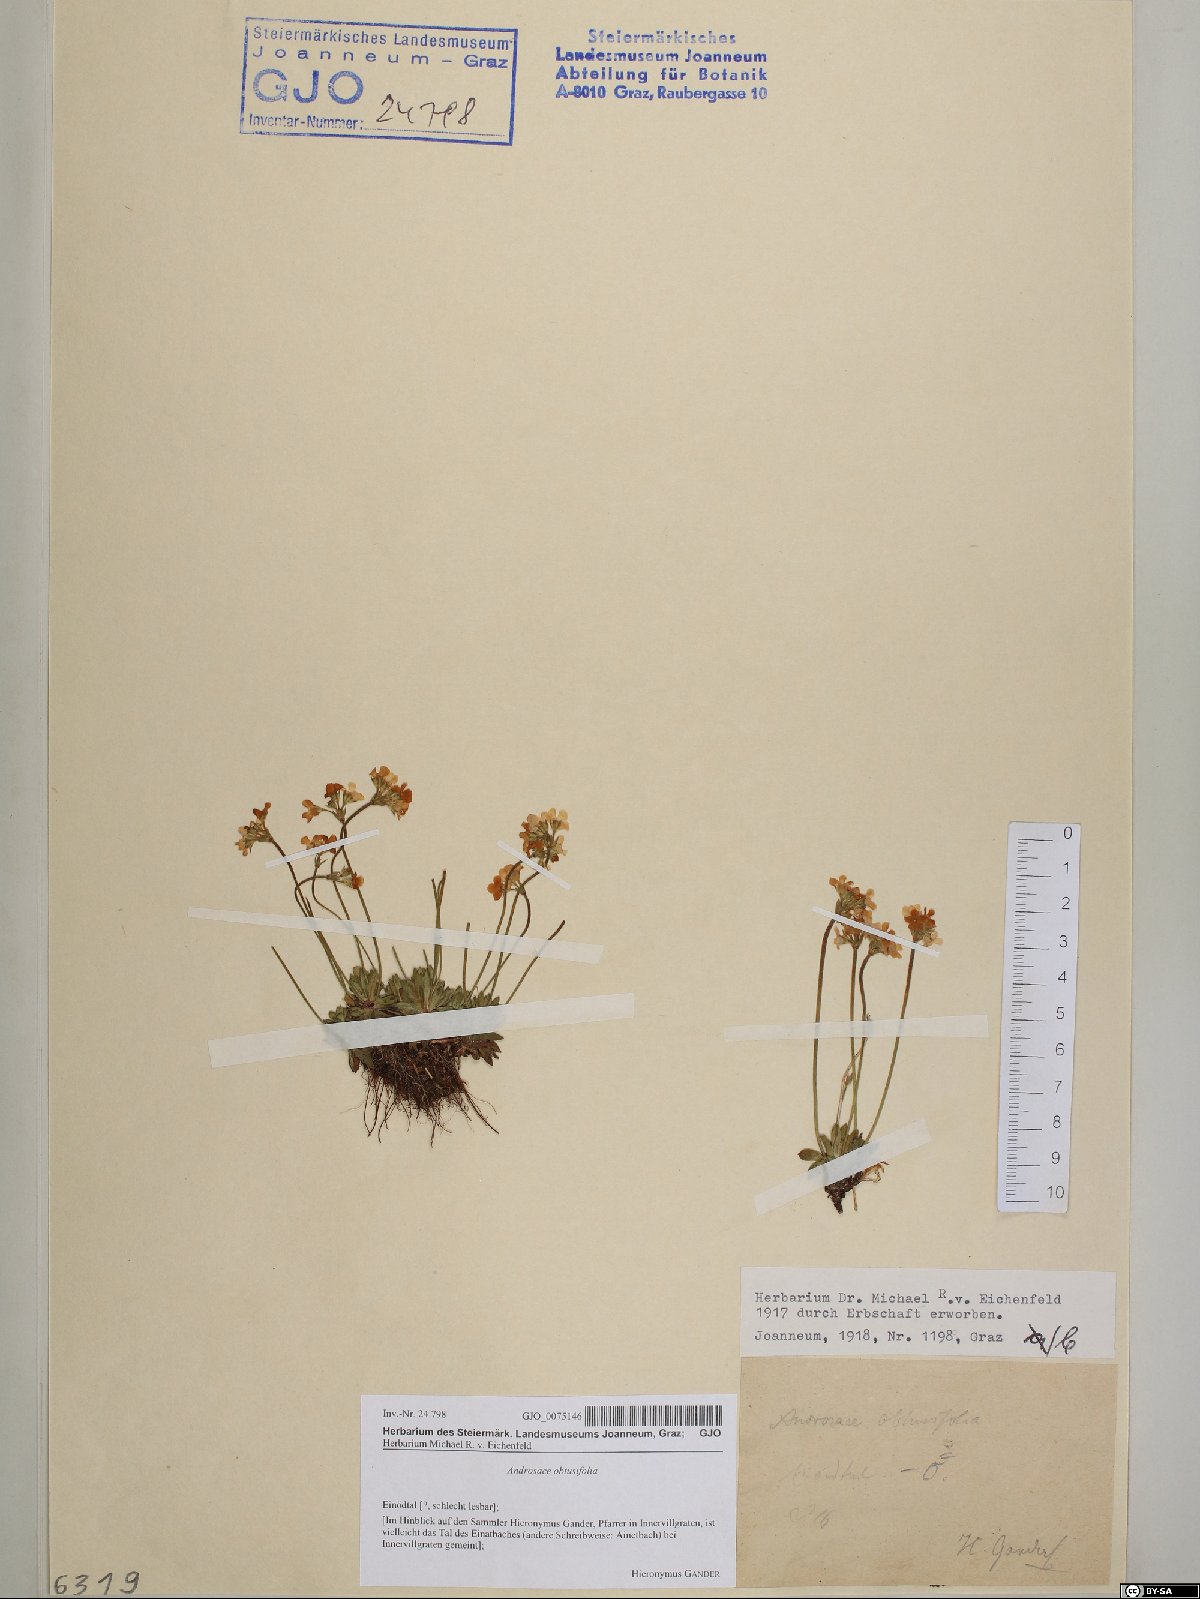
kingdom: Plantae
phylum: Tracheophyta
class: Magnoliopsida
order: Ericales
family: Primulaceae
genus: Androsace
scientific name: Androsace obtusifolia
